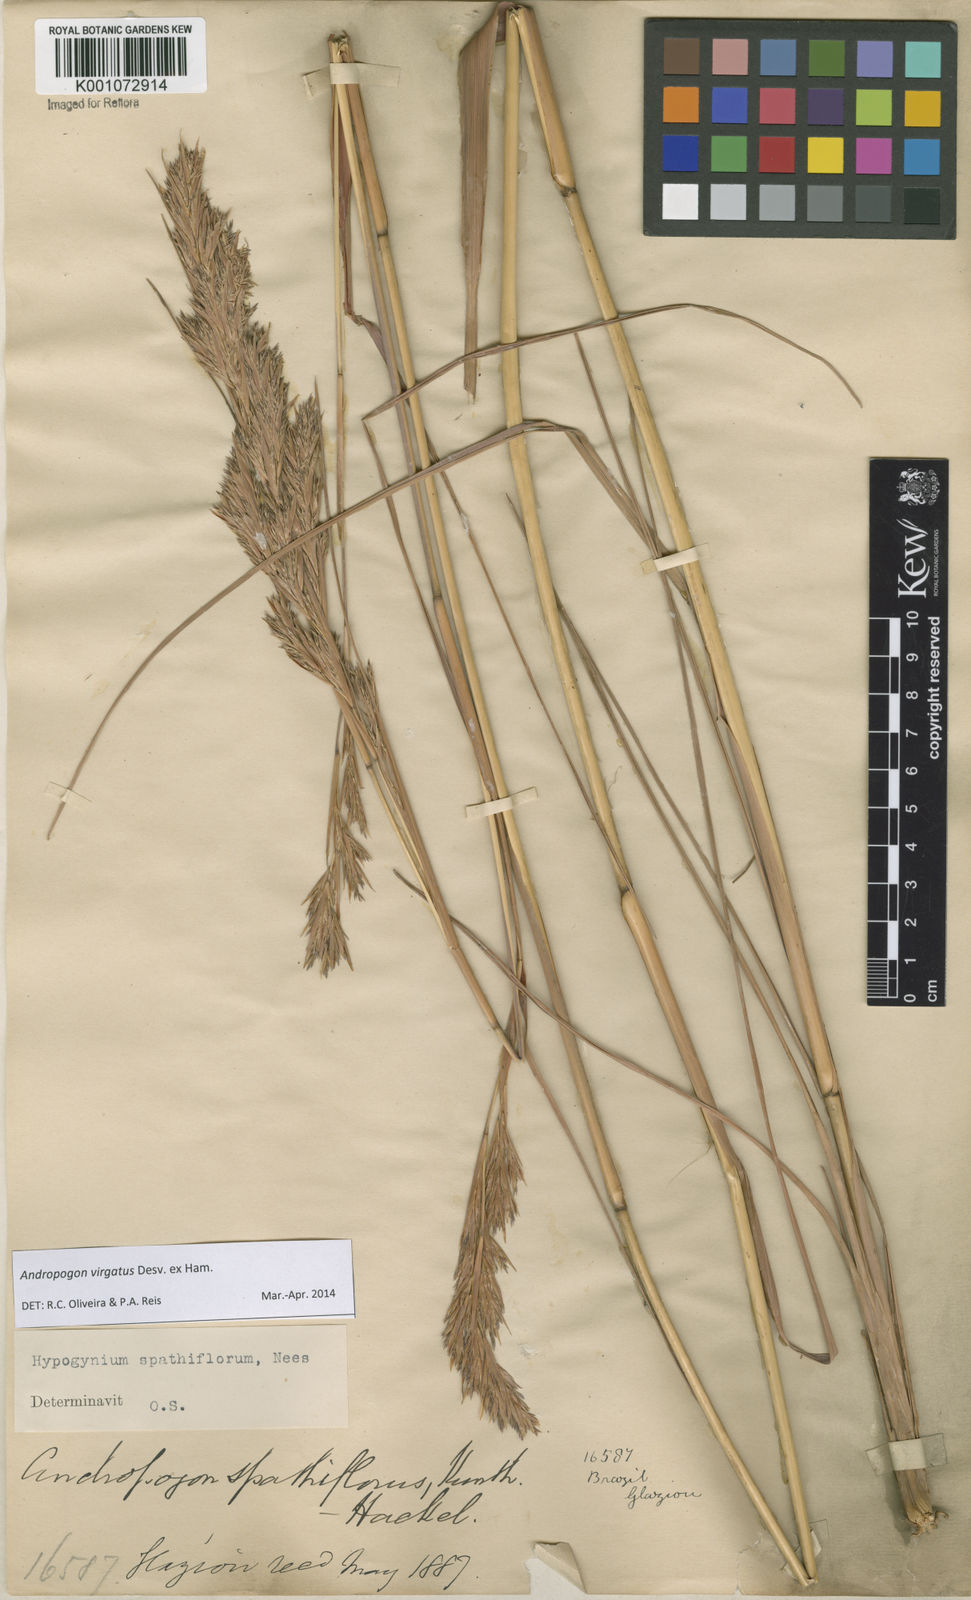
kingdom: Plantae
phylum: Tracheophyta
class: Liliopsida
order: Poales
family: Poaceae
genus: Andropogon
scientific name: Andropogon virgatus
